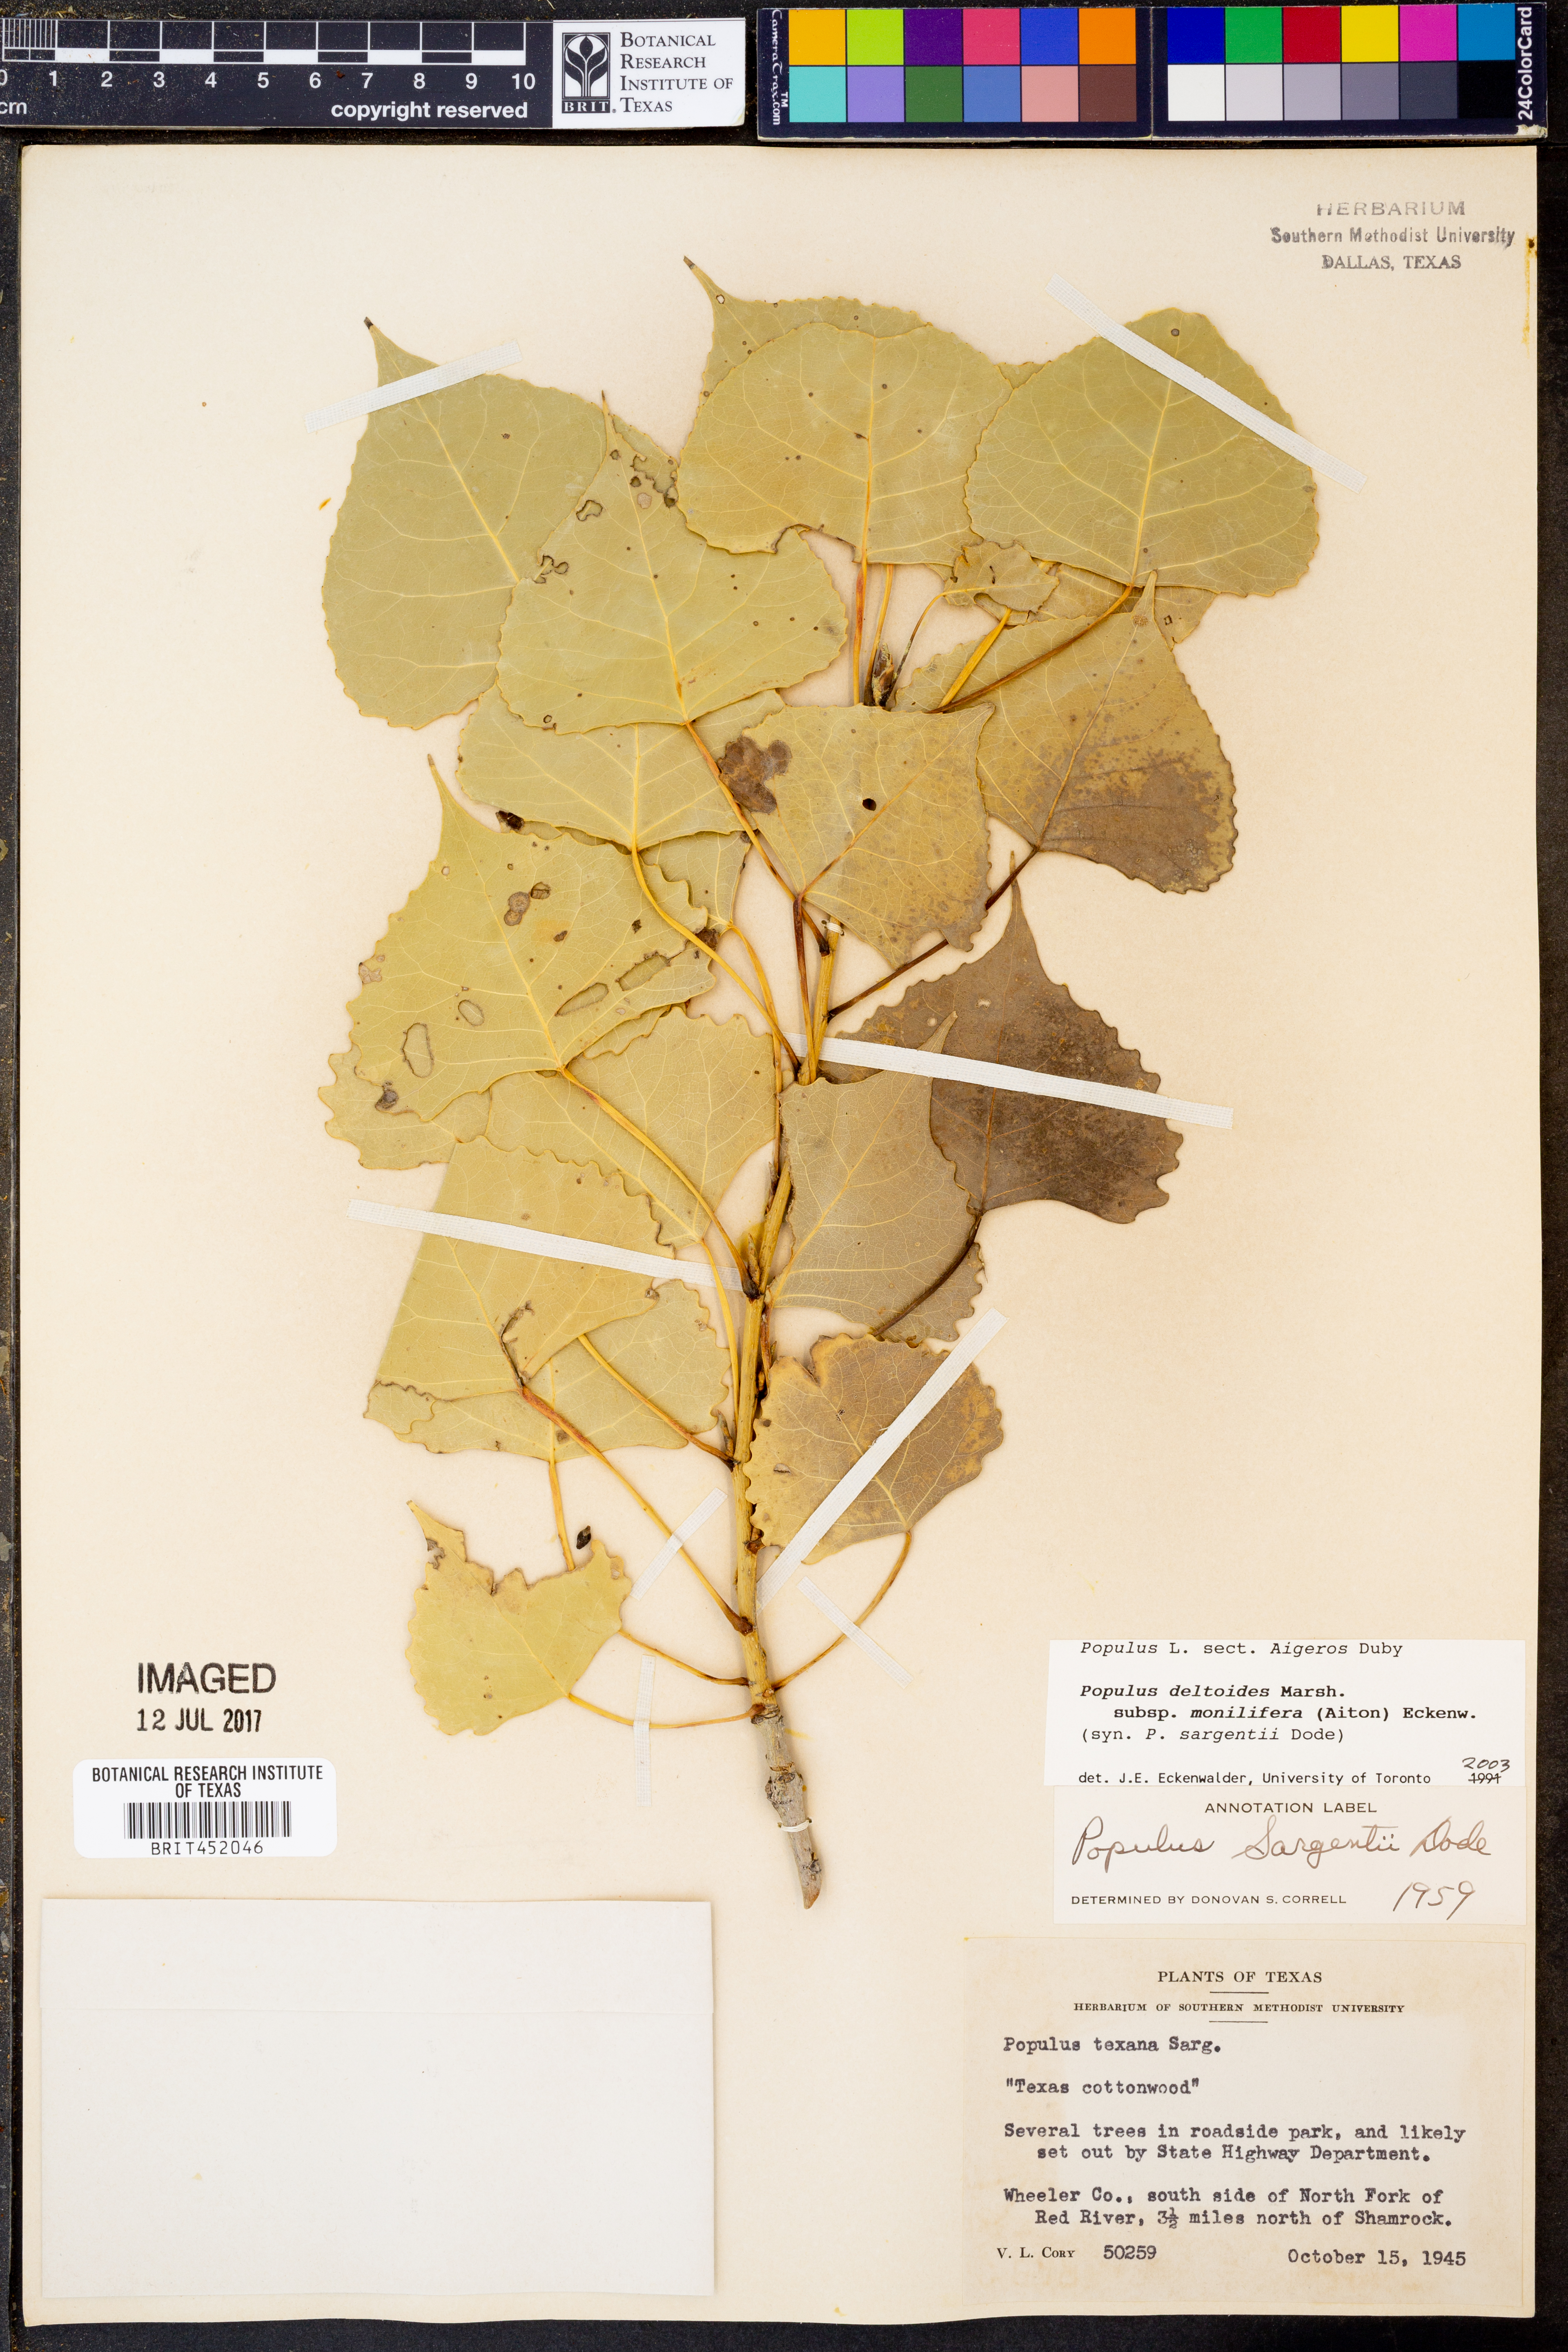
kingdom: Plantae
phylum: Tracheophyta
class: Magnoliopsida
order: Malpighiales
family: Salicaceae
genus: Populus
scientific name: Populus deltoides
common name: Eastern cottonwood
